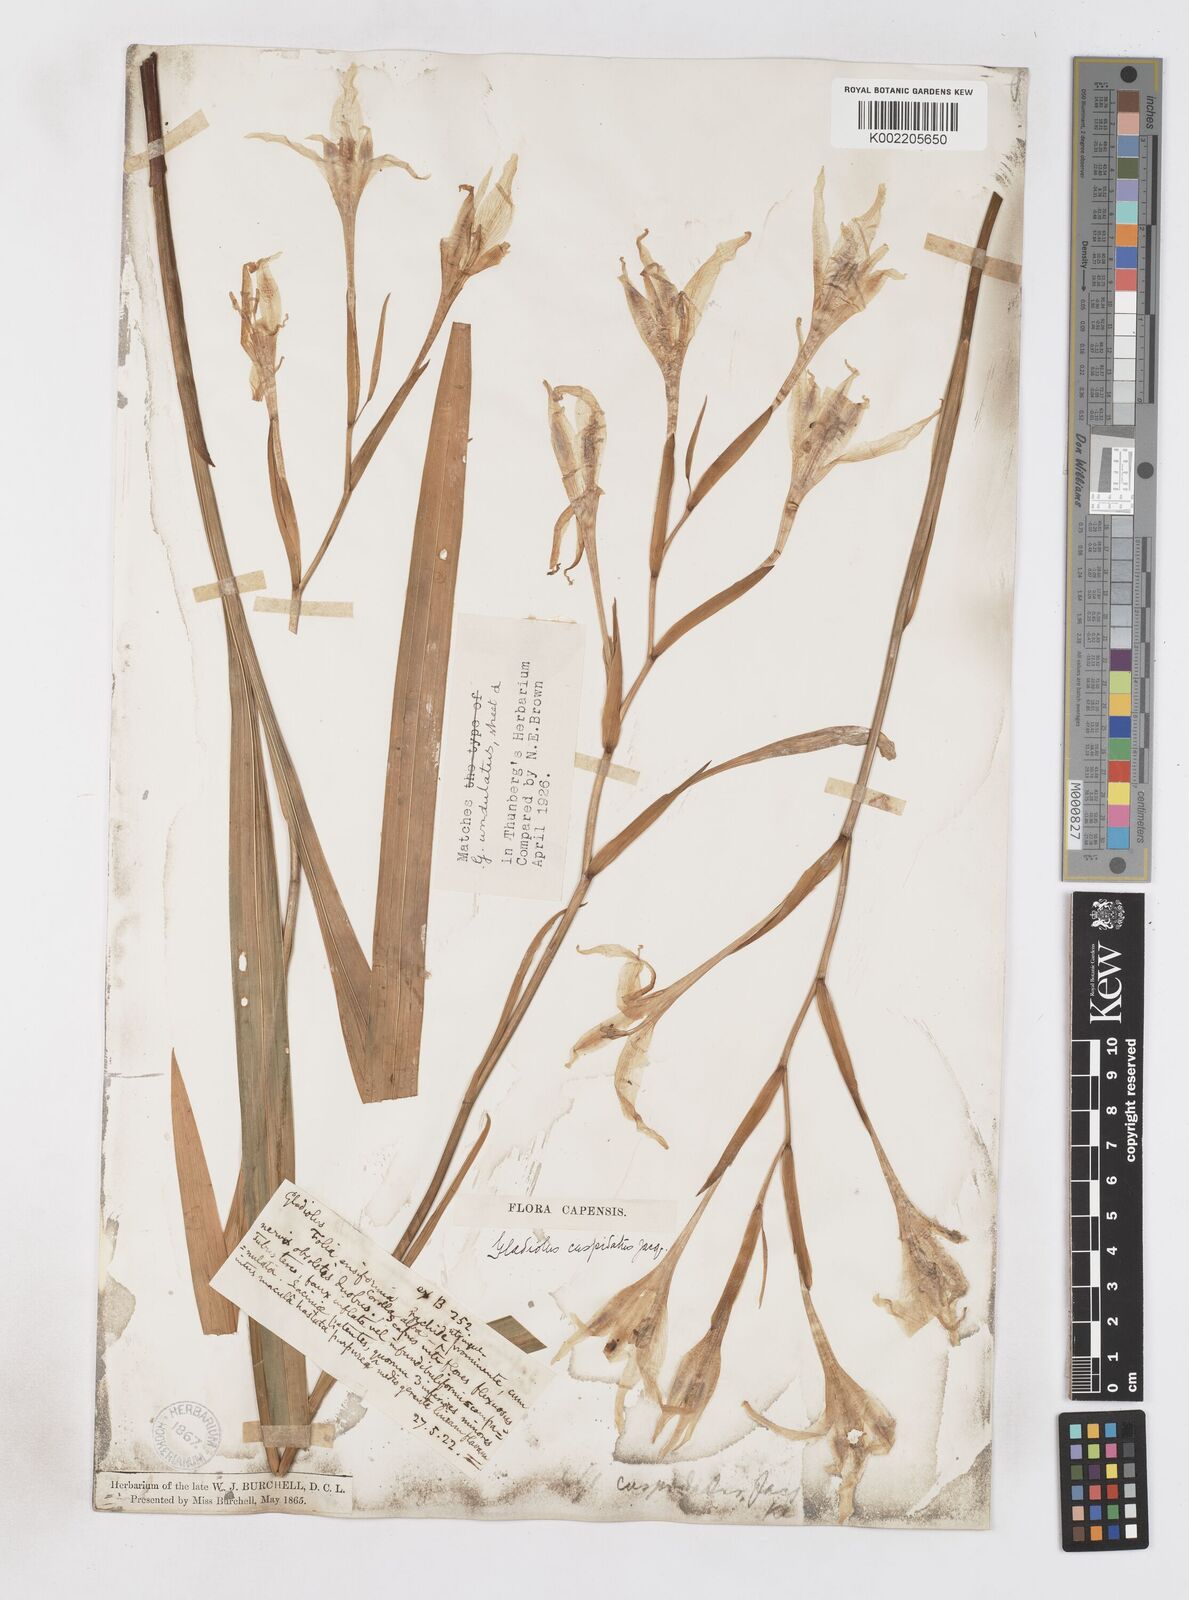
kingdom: Plantae
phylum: Tracheophyta
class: Liliopsida
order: Asparagales
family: Iridaceae
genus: Gladiolus
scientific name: Gladiolus undulatus
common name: Large painted-lady
